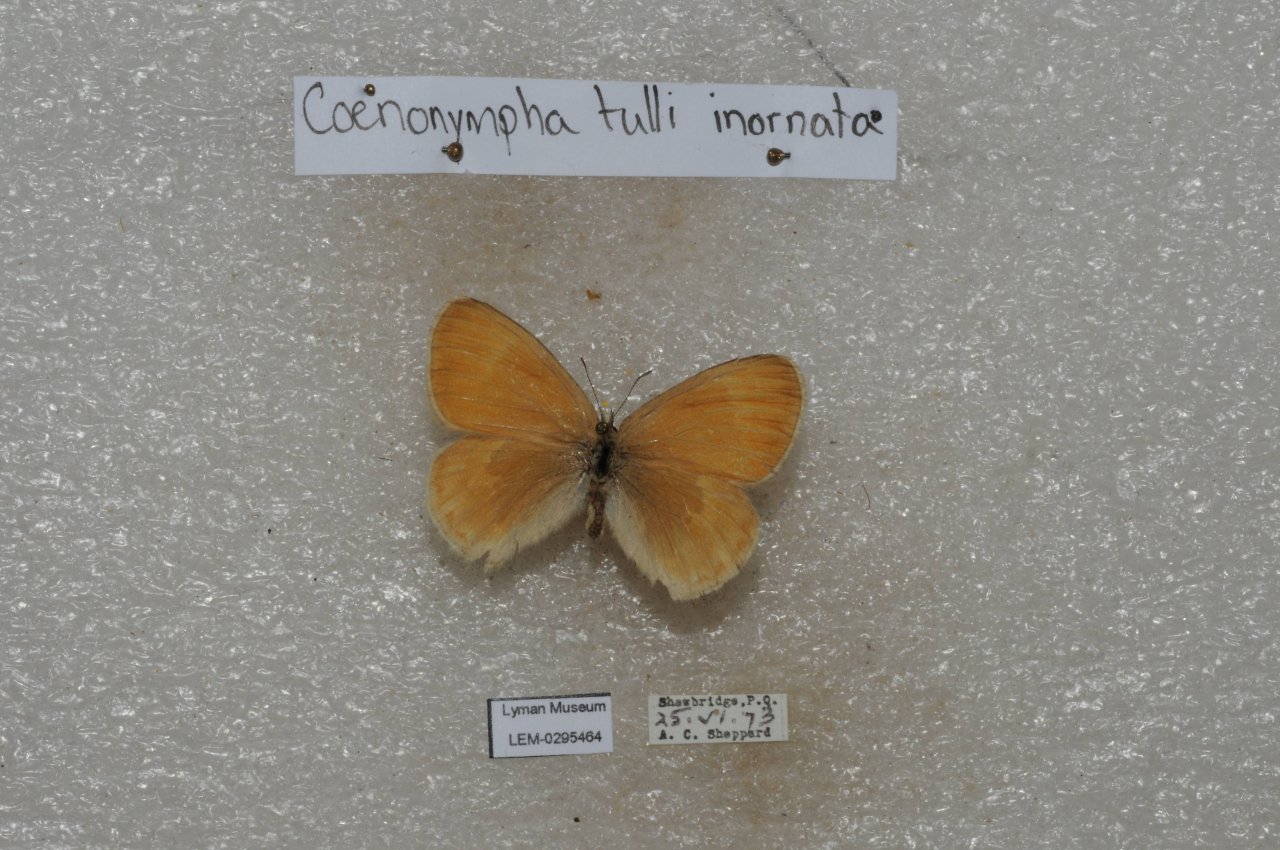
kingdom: Animalia
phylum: Arthropoda
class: Insecta
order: Lepidoptera
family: Nymphalidae
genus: Coenonympha
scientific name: Coenonympha tullia
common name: Large Heath
